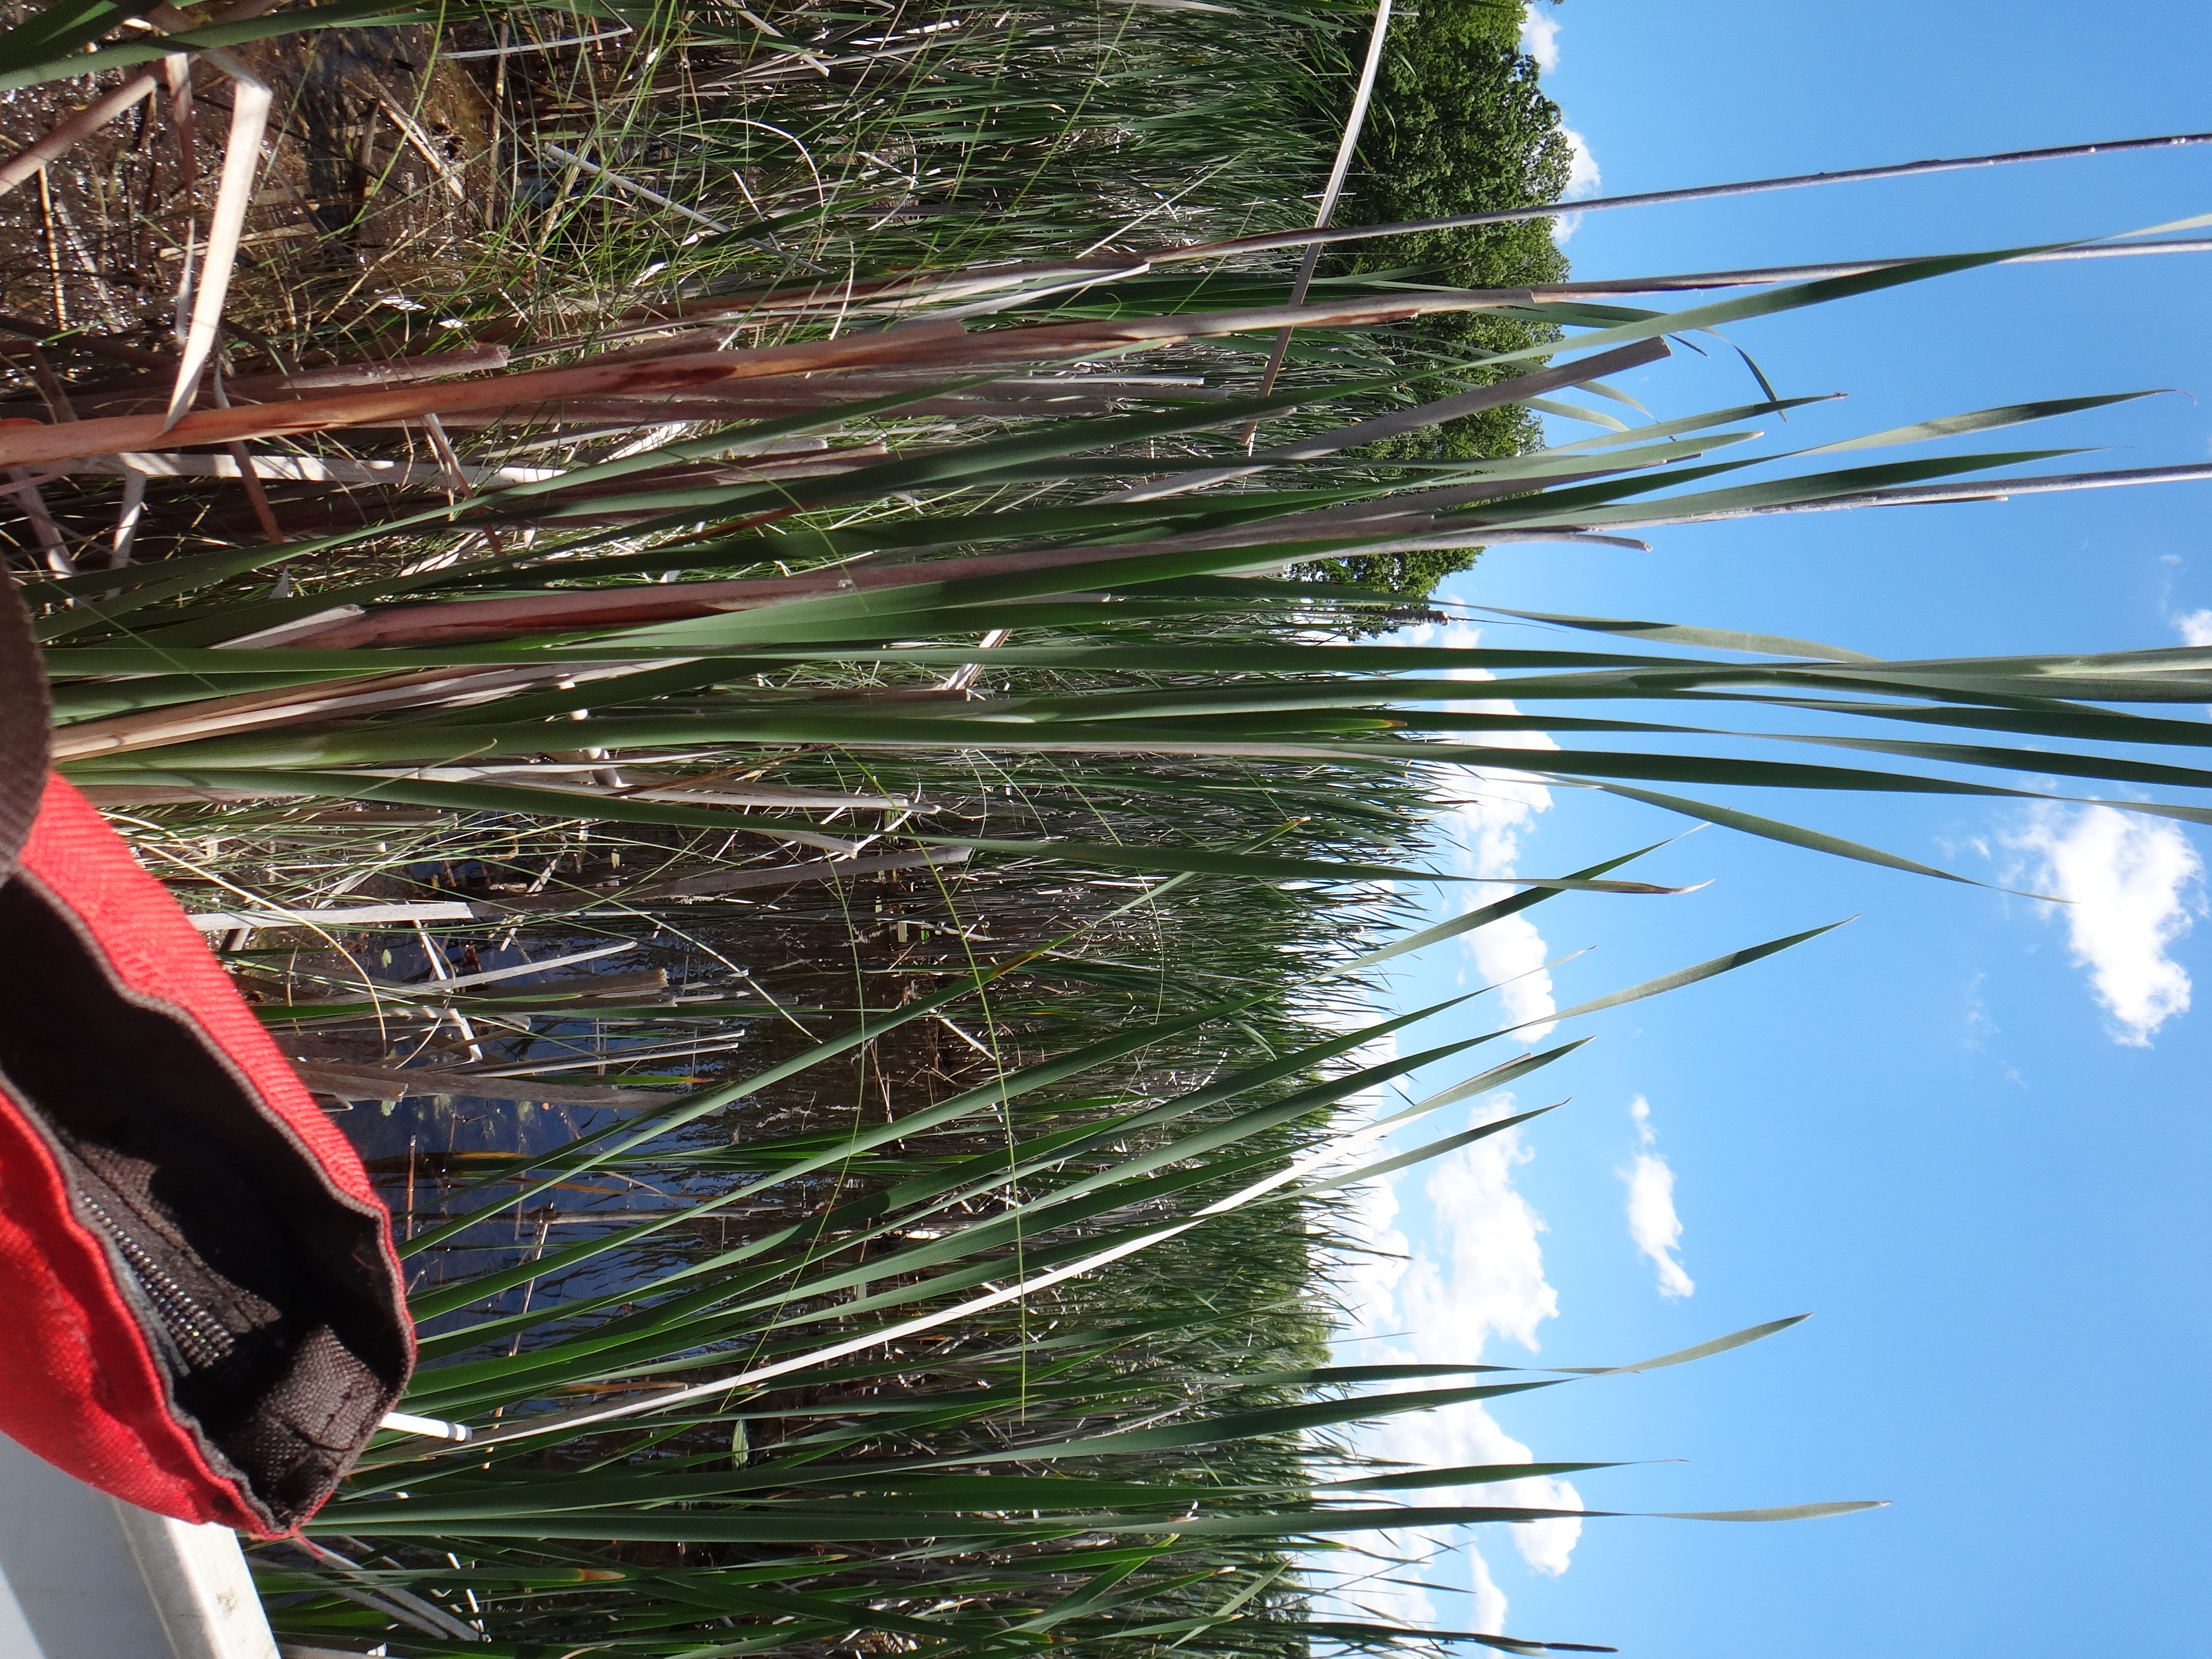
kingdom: Plantae
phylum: Tracheophyta
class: Liliopsida
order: Poales
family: Poaceae
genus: Phalaris
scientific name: Phalaris arundinacea
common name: Reed canary-grass
